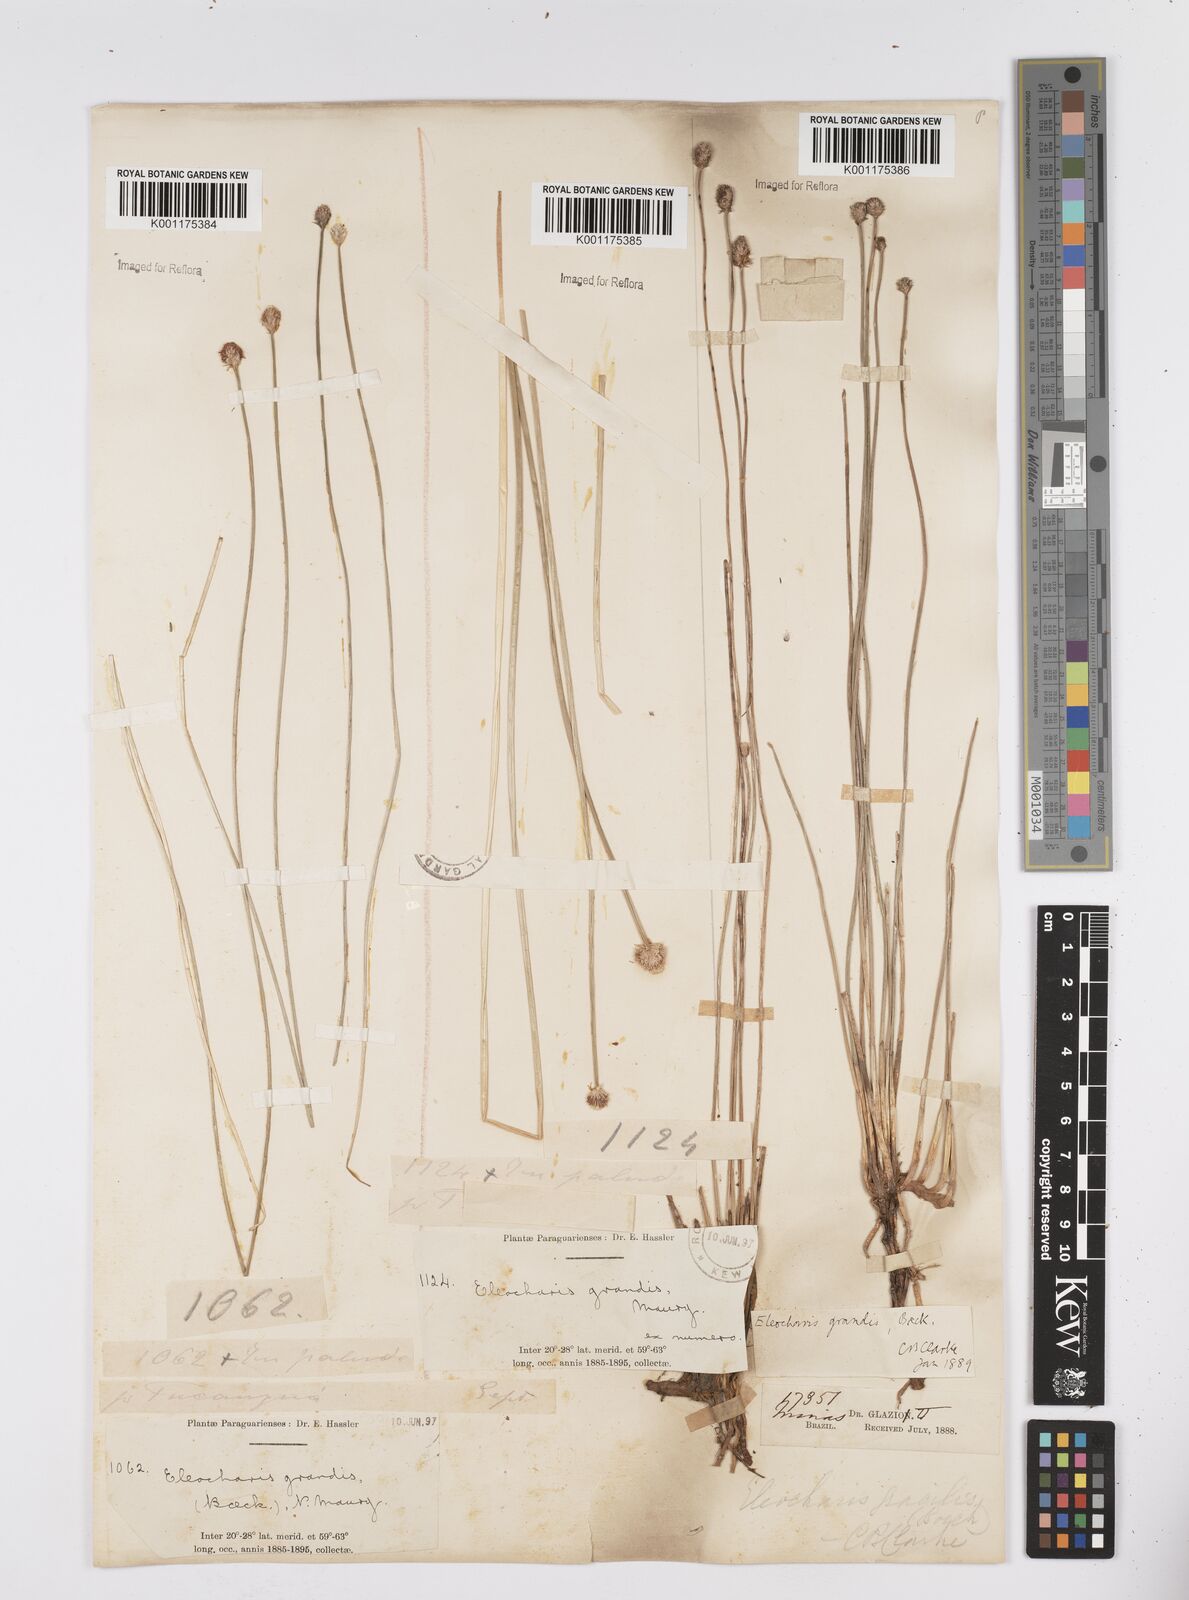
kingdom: Plantae
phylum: Tracheophyta
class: Liliopsida
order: Poales
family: Cyperaceae
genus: Eleocharis
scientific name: Eleocharis nudipes
